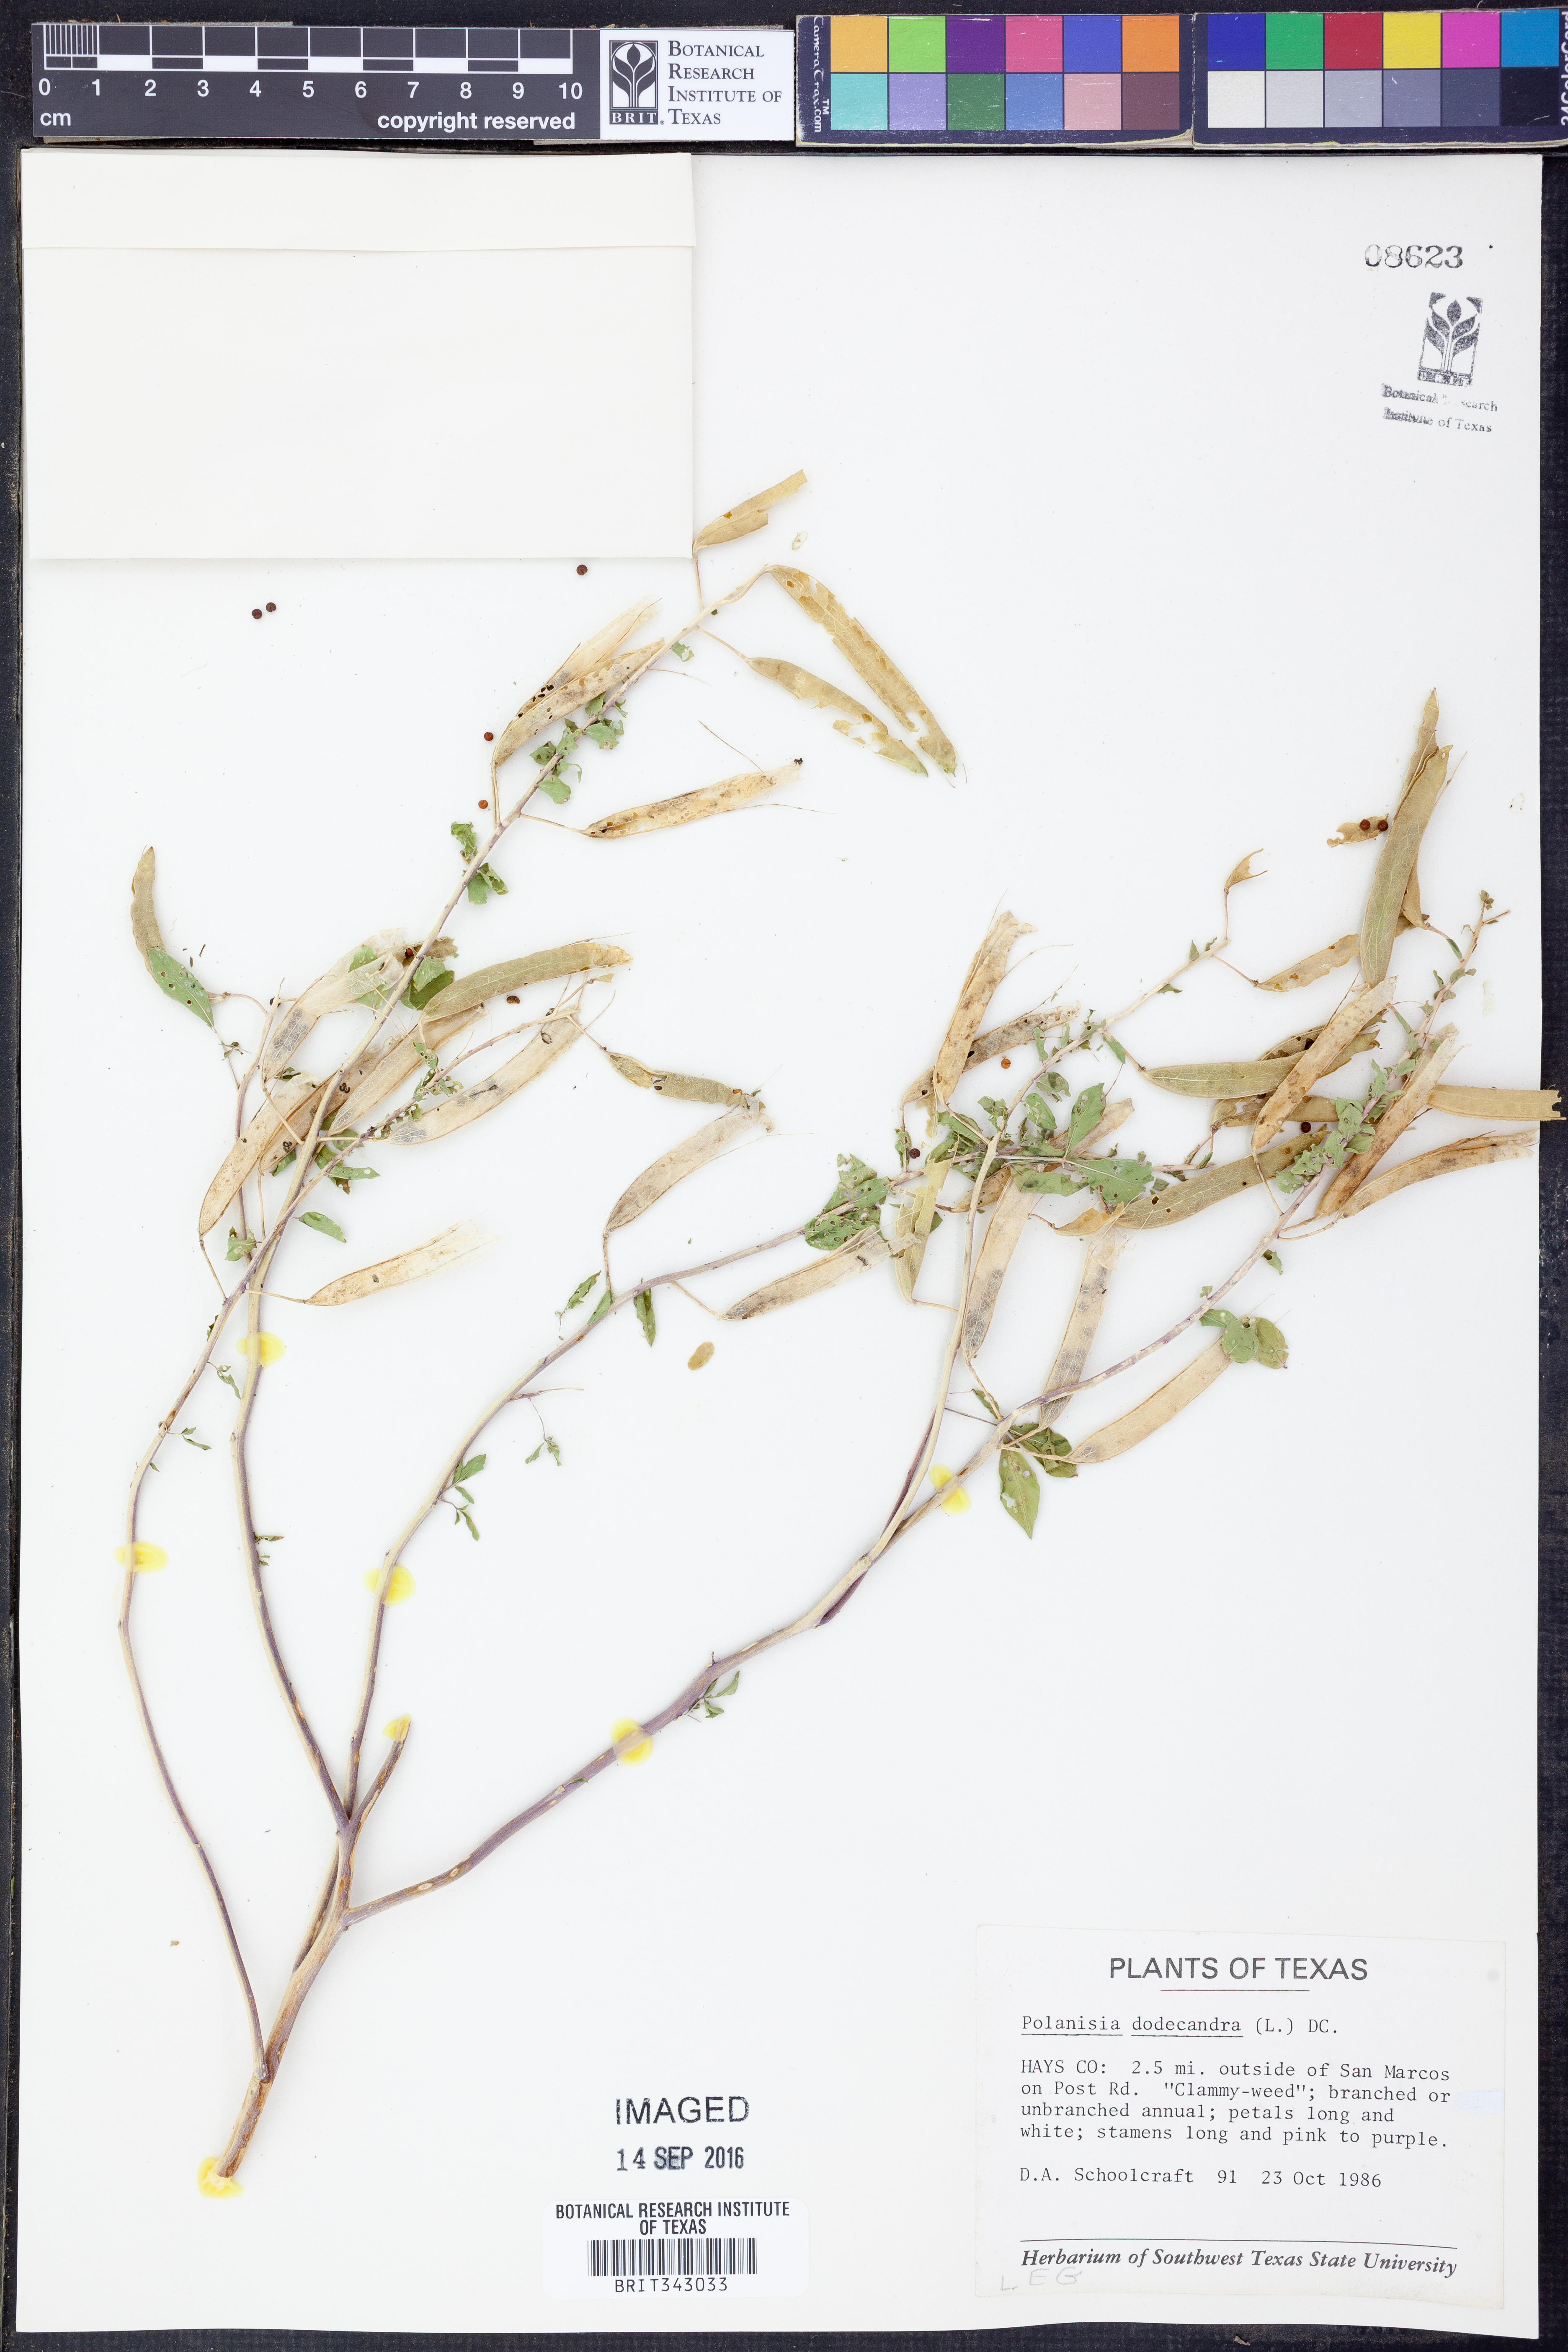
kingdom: Plantae
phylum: Tracheophyta
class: Magnoliopsida
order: Brassicales
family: Cleomaceae
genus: Polanisia
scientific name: Polanisia dodecandra
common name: Clammyweed
